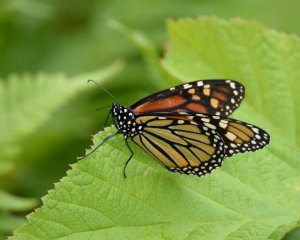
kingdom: Animalia
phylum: Arthropoda
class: Insecta
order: Lepidoptera
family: Nymphalidae
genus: Danaus
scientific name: Danaus plexippus
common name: Monarch
